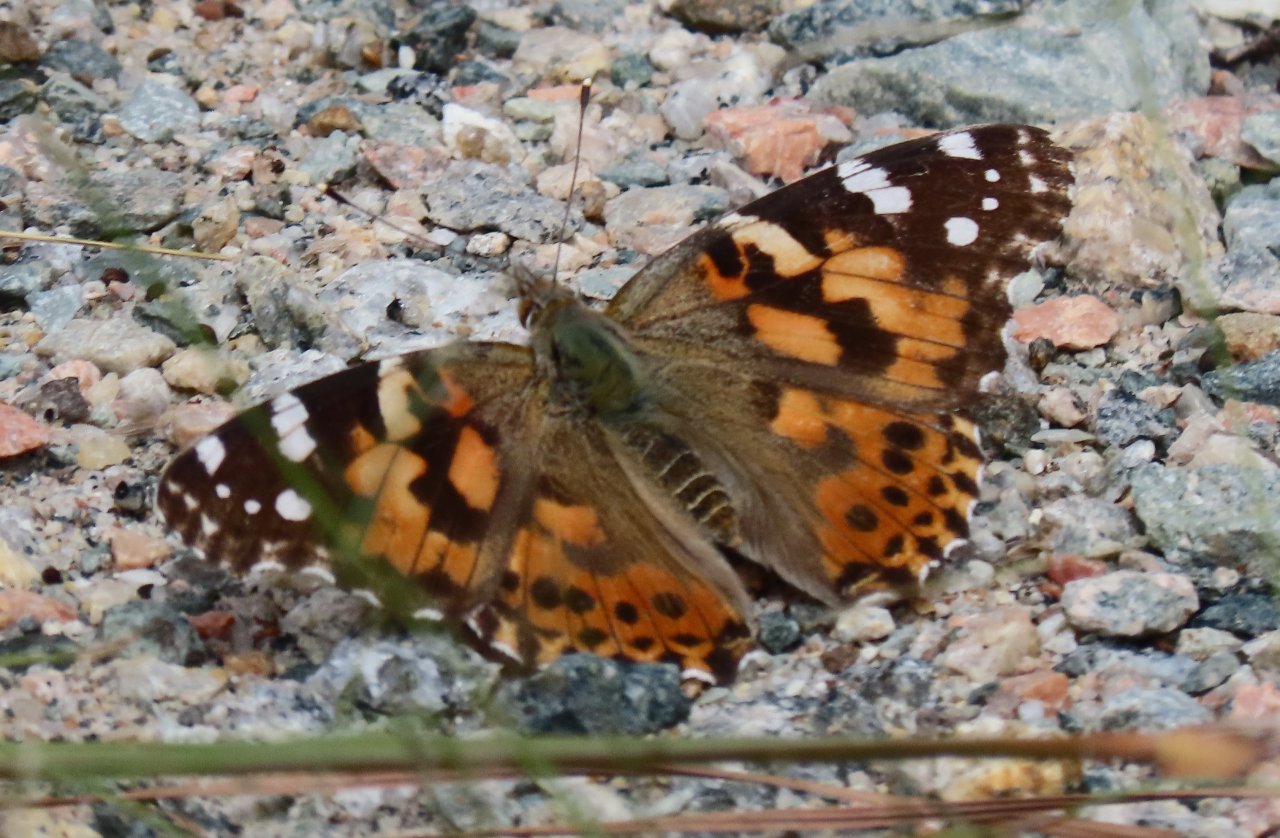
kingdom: Animalia
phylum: Arthropoda
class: Insecta
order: Lepidoptera
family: Nymphalidae
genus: Vanessa
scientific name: Vanessa cardui
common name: Painted Lady
